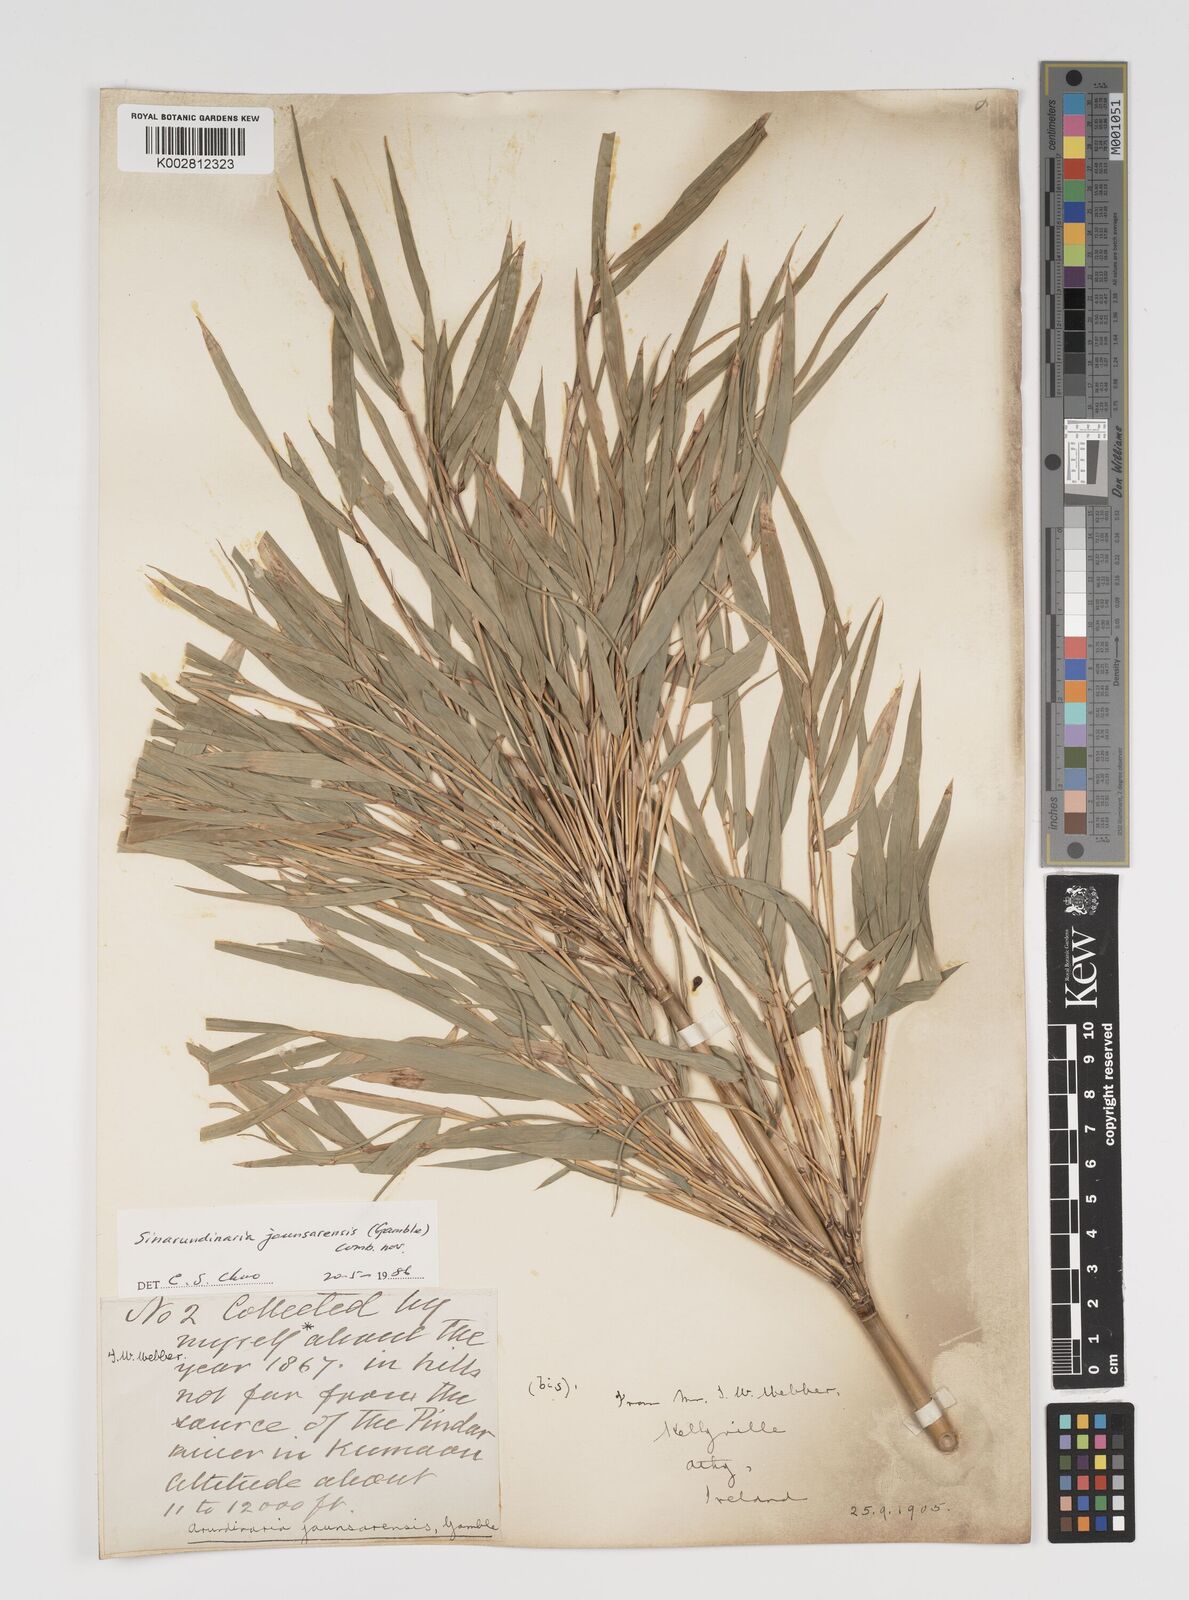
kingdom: Plantae
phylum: Tracheophyta
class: Liliopsida
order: Poales
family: Poaceae
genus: Yushania
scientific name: Yushania anceps
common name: Indian fountain-bamboo
